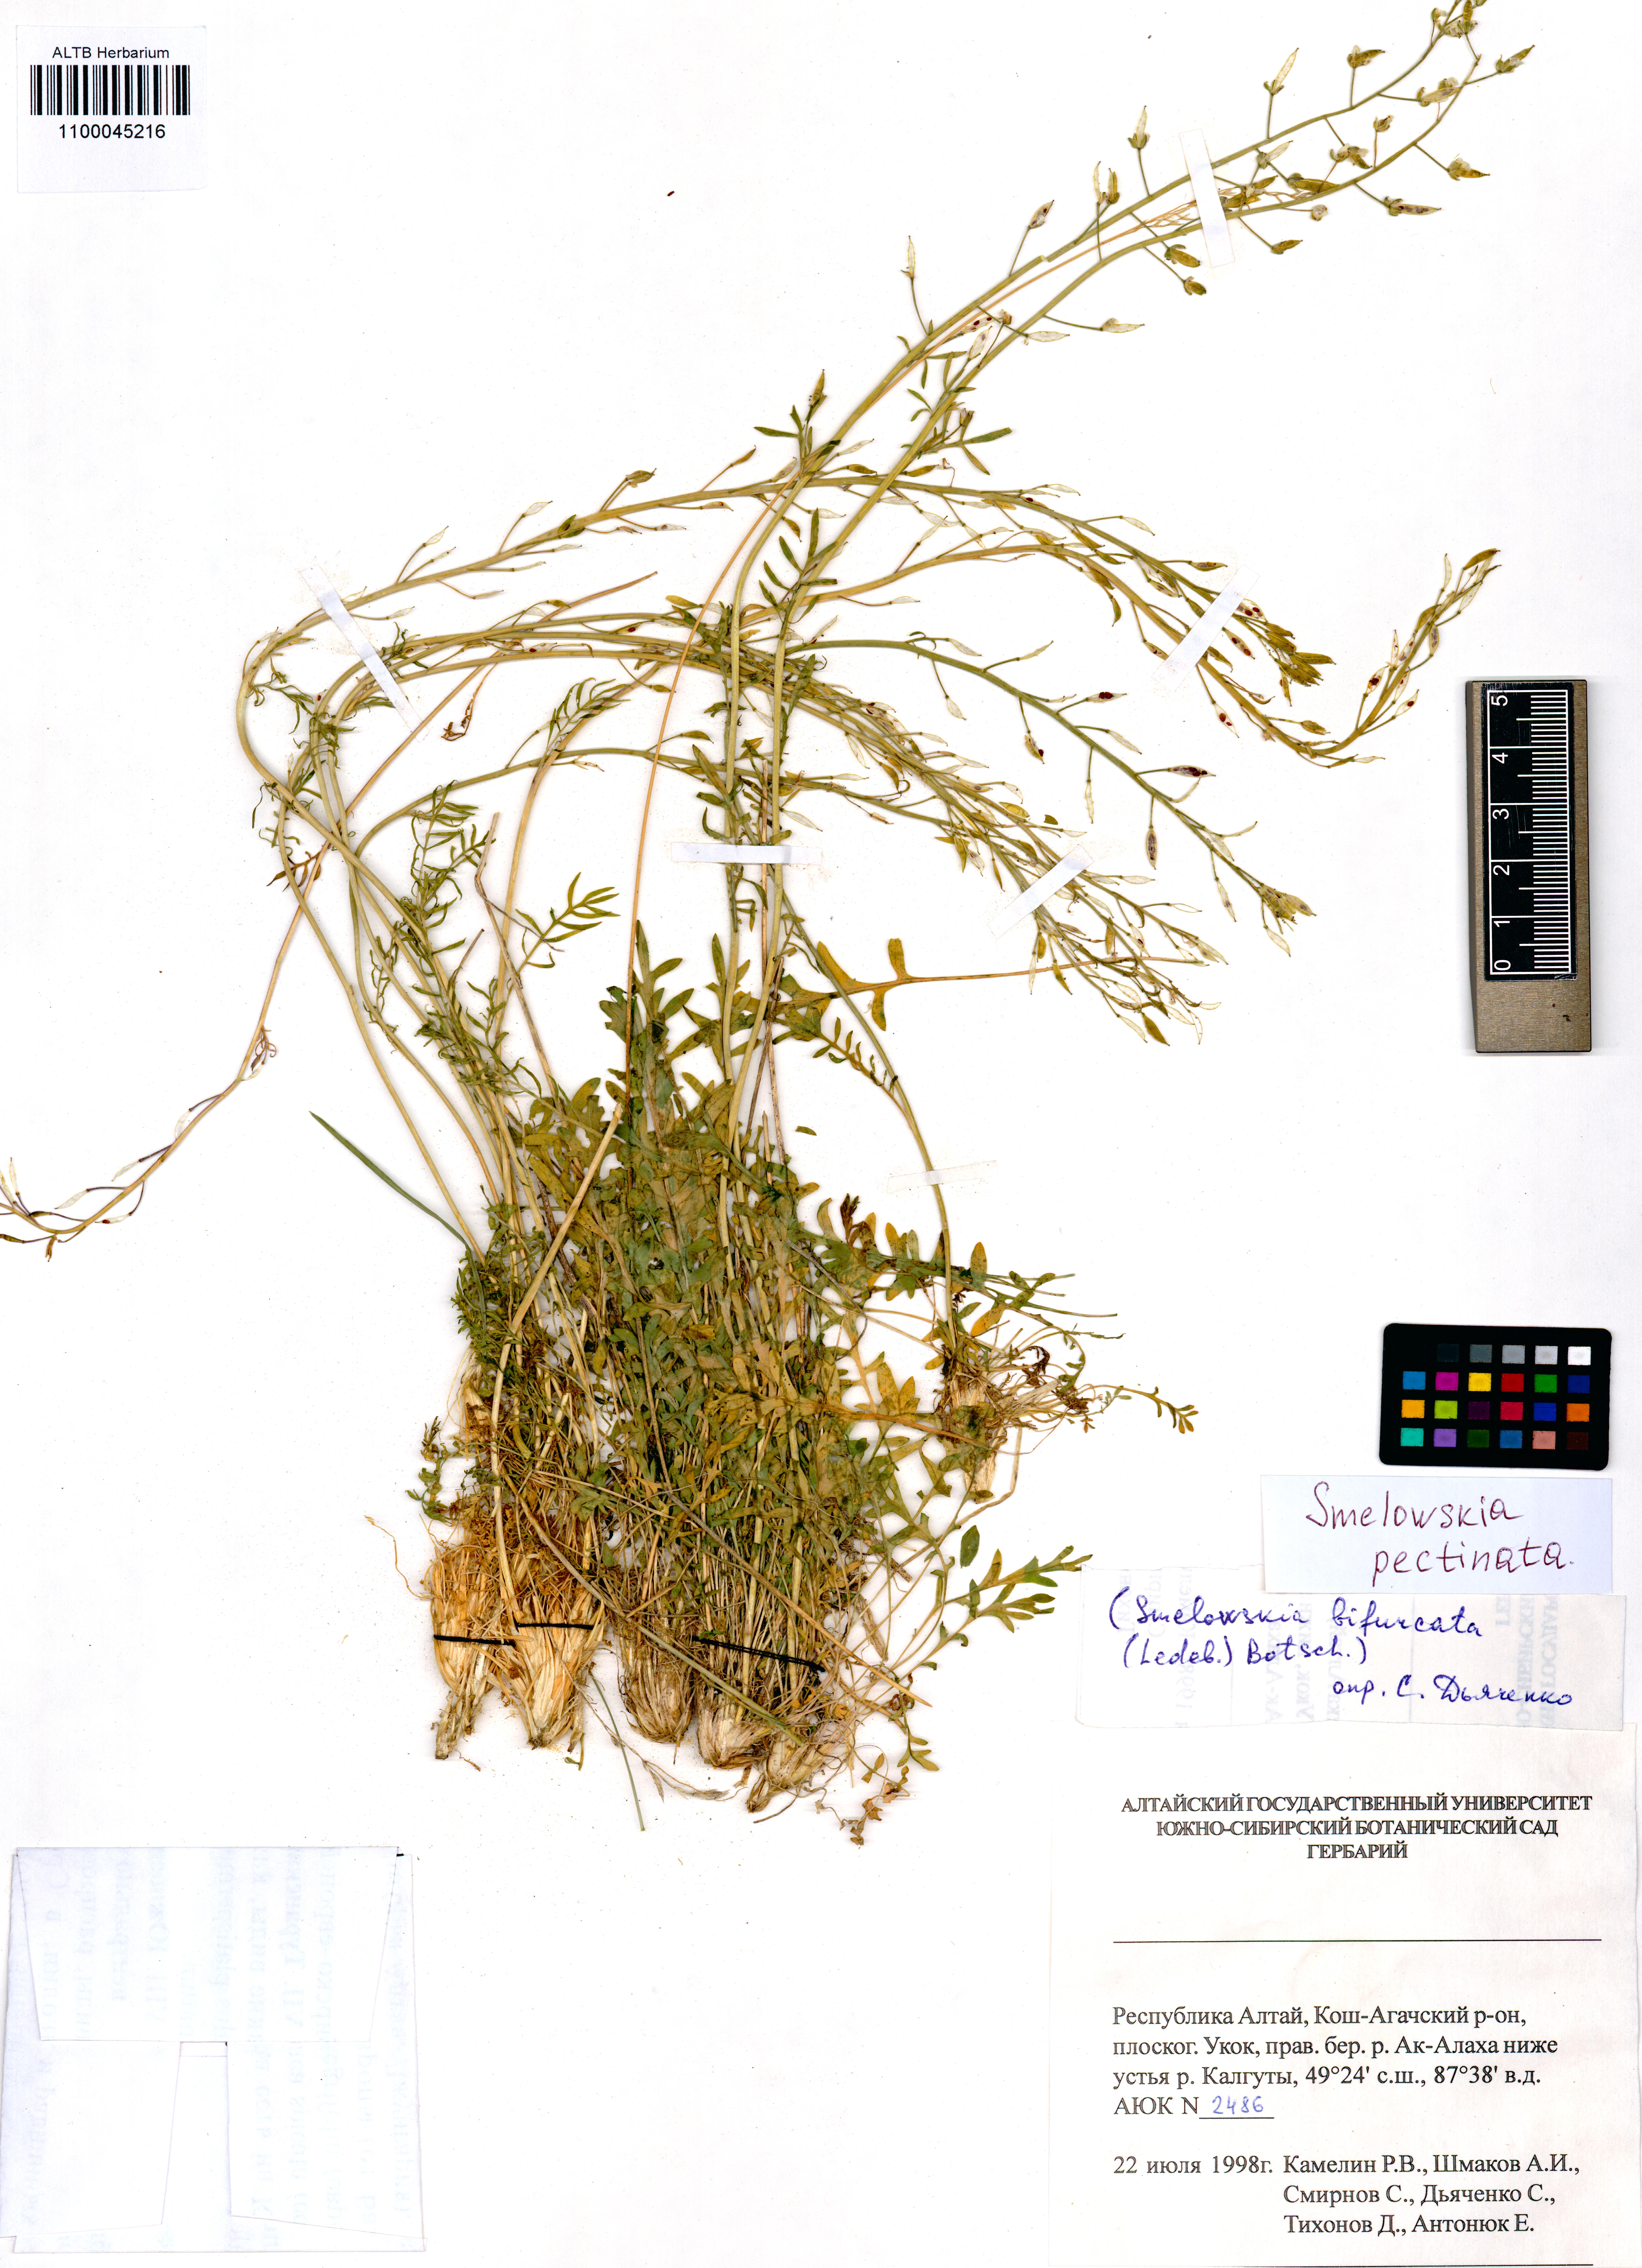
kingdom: Plantae
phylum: Tracheophyta
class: Magnoliopsida
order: Brassicales
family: Brassicaceae
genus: Smelowskia
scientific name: Smelowskia calycina
